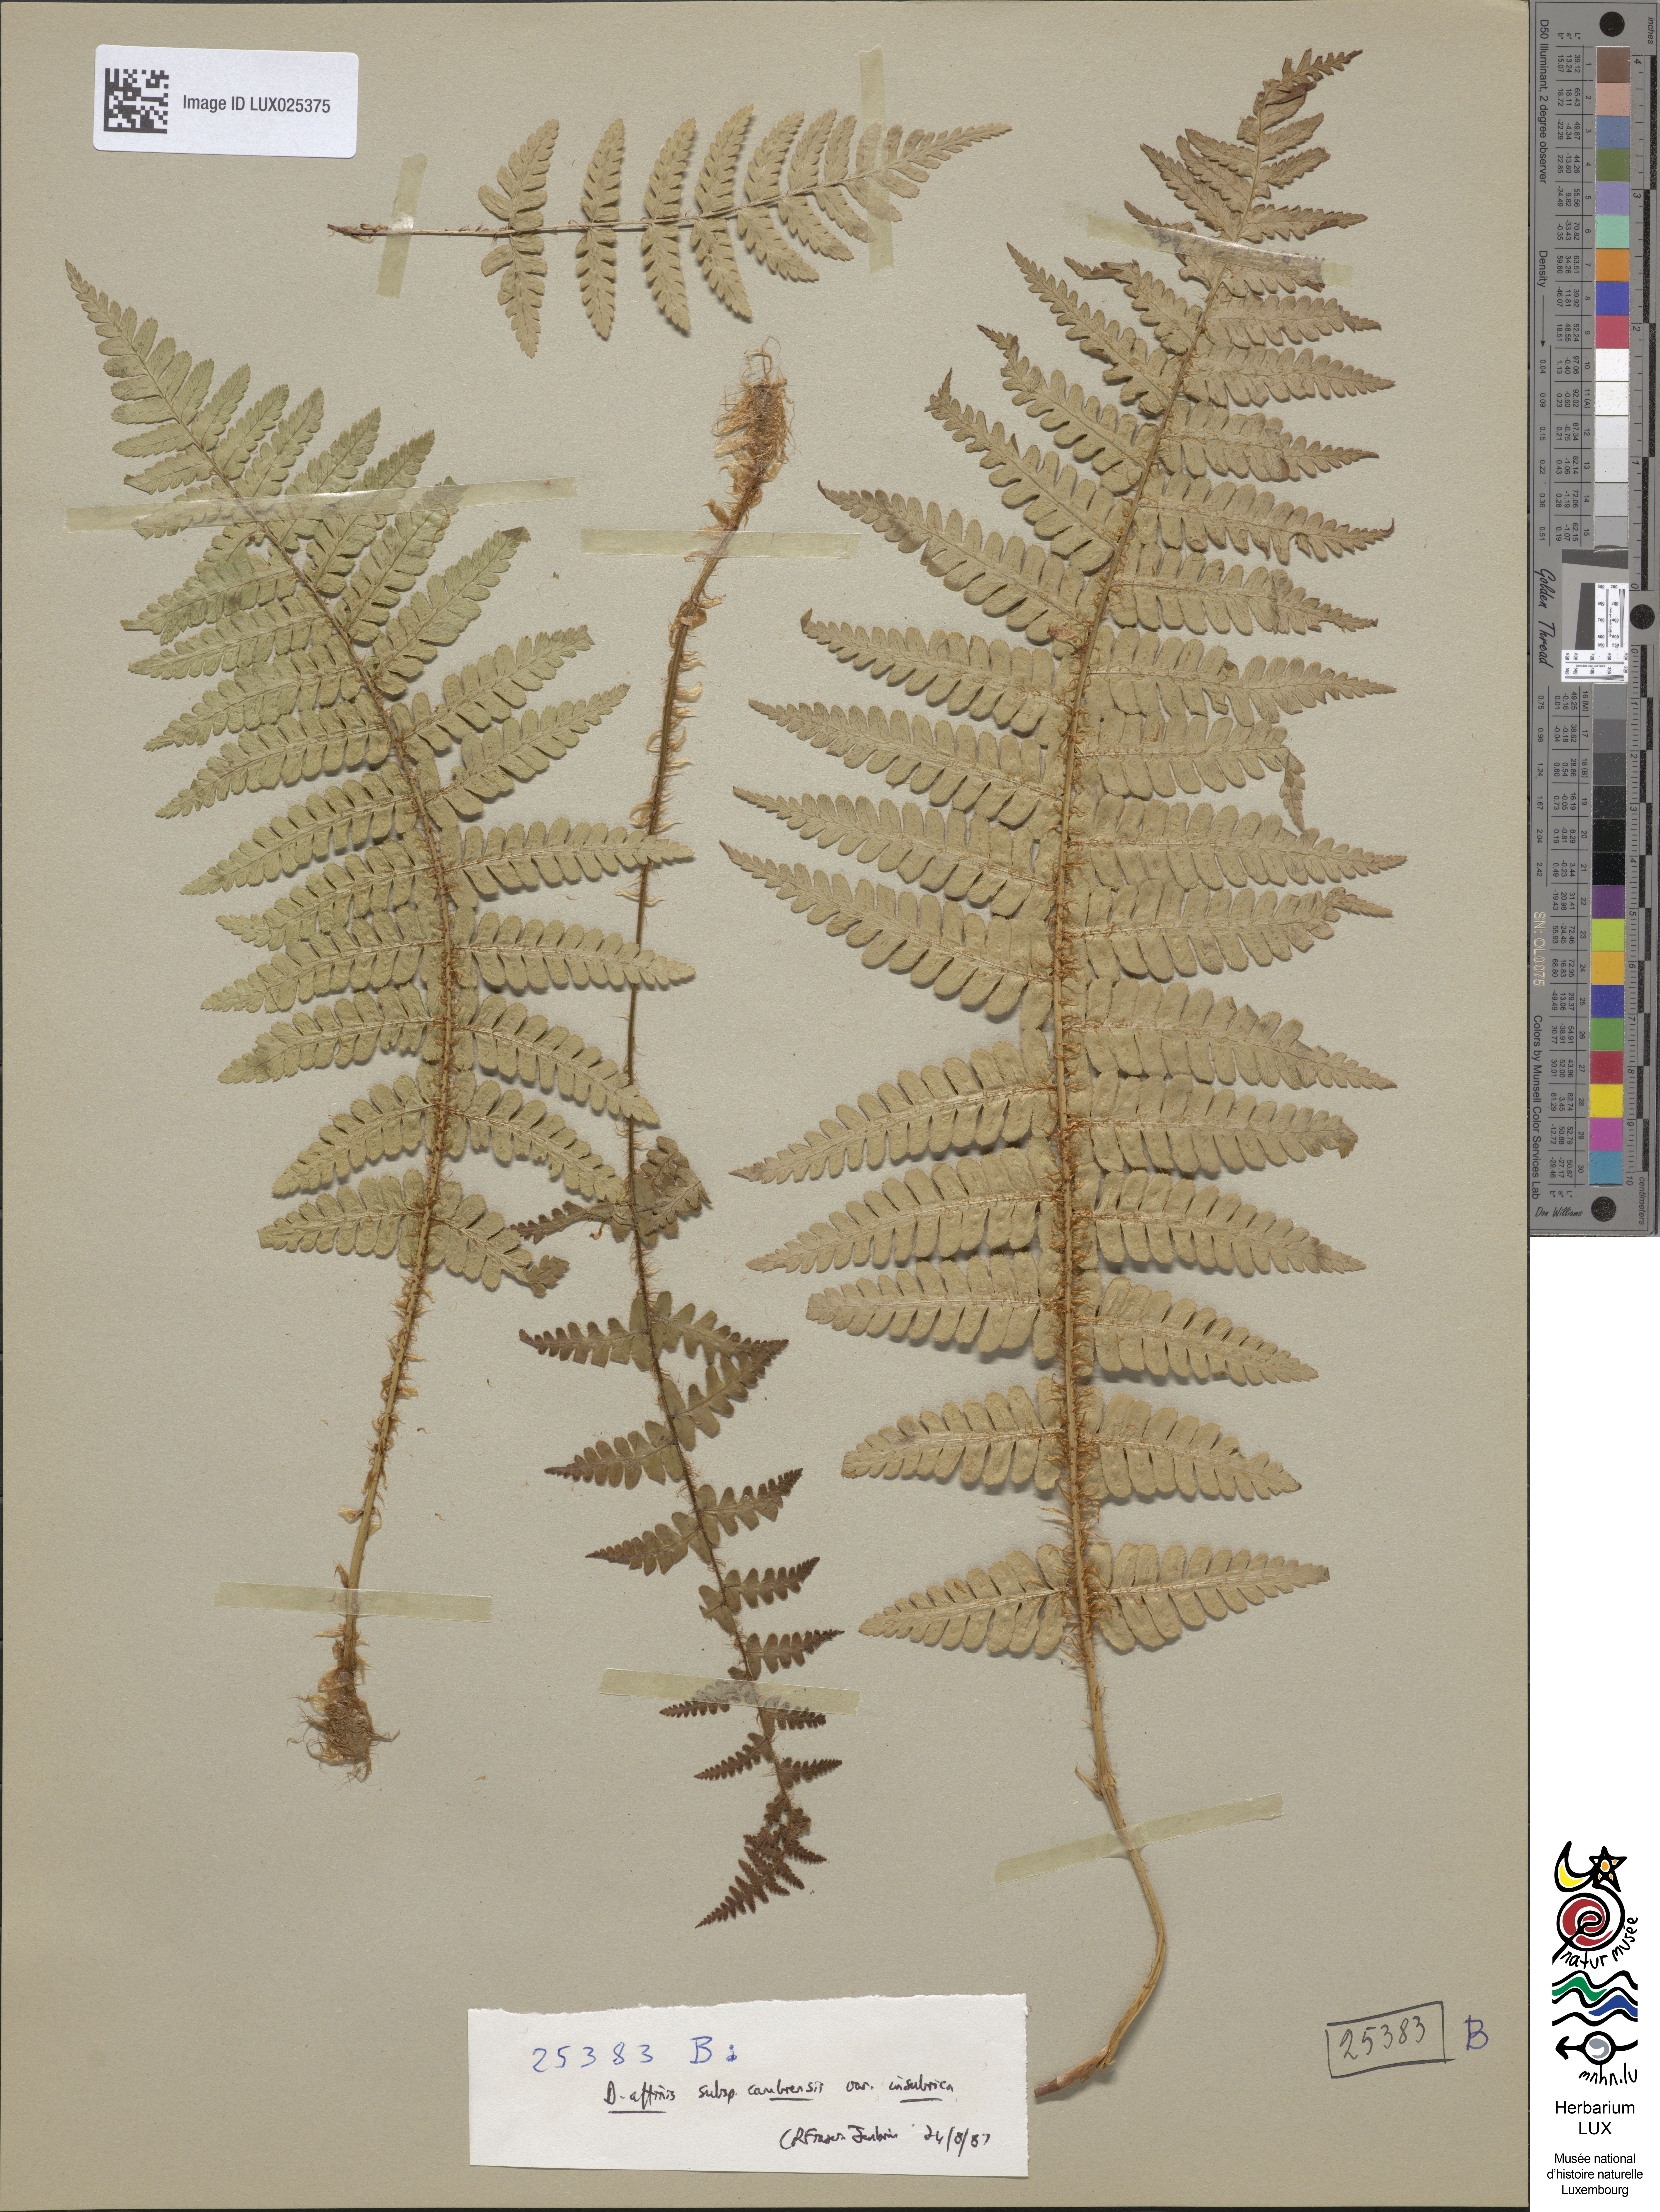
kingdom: Plantae
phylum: Tracheophyta
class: Polypodiopsida
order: Polypodiales
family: Dryopteridaceae
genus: Dryopteris
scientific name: Dryopteris cambrensis
